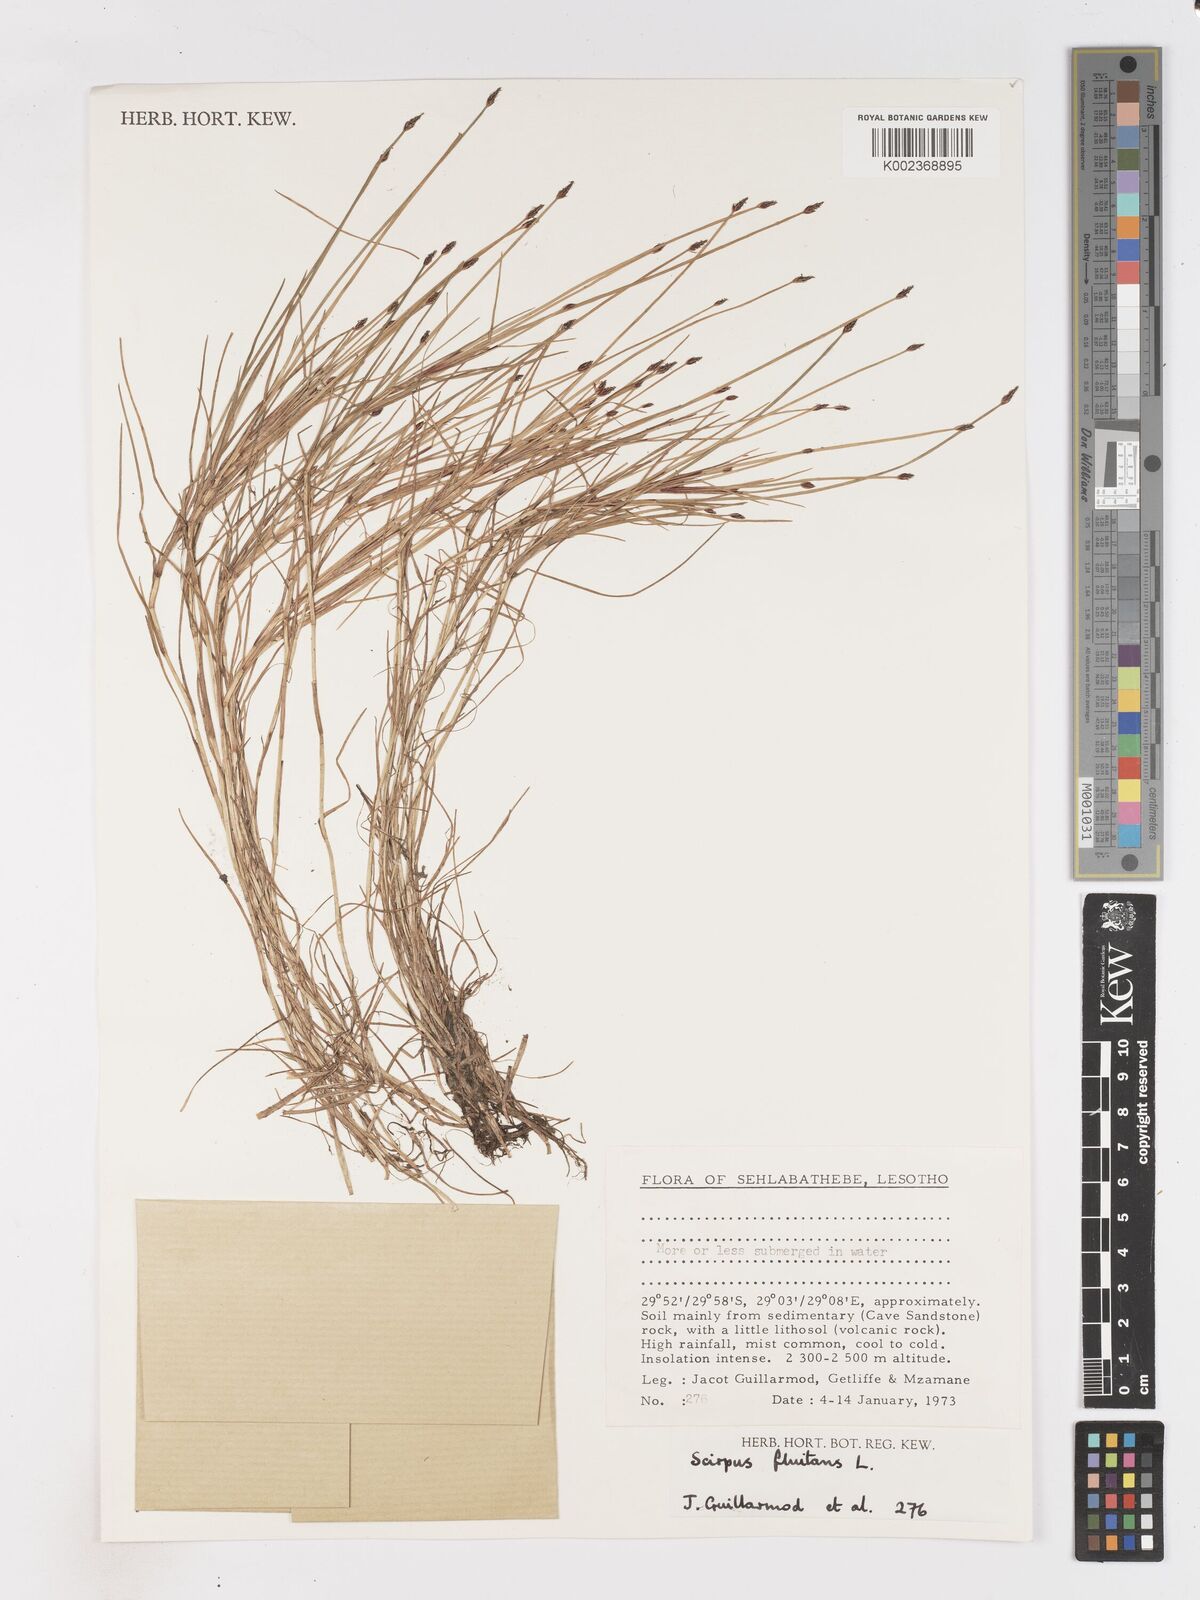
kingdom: Plantae
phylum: Tracheophyta
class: Liliopsida
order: Poales
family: Cyperaceae
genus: Isolepis
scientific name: Isolepis fluitans
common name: Floating club-rush
